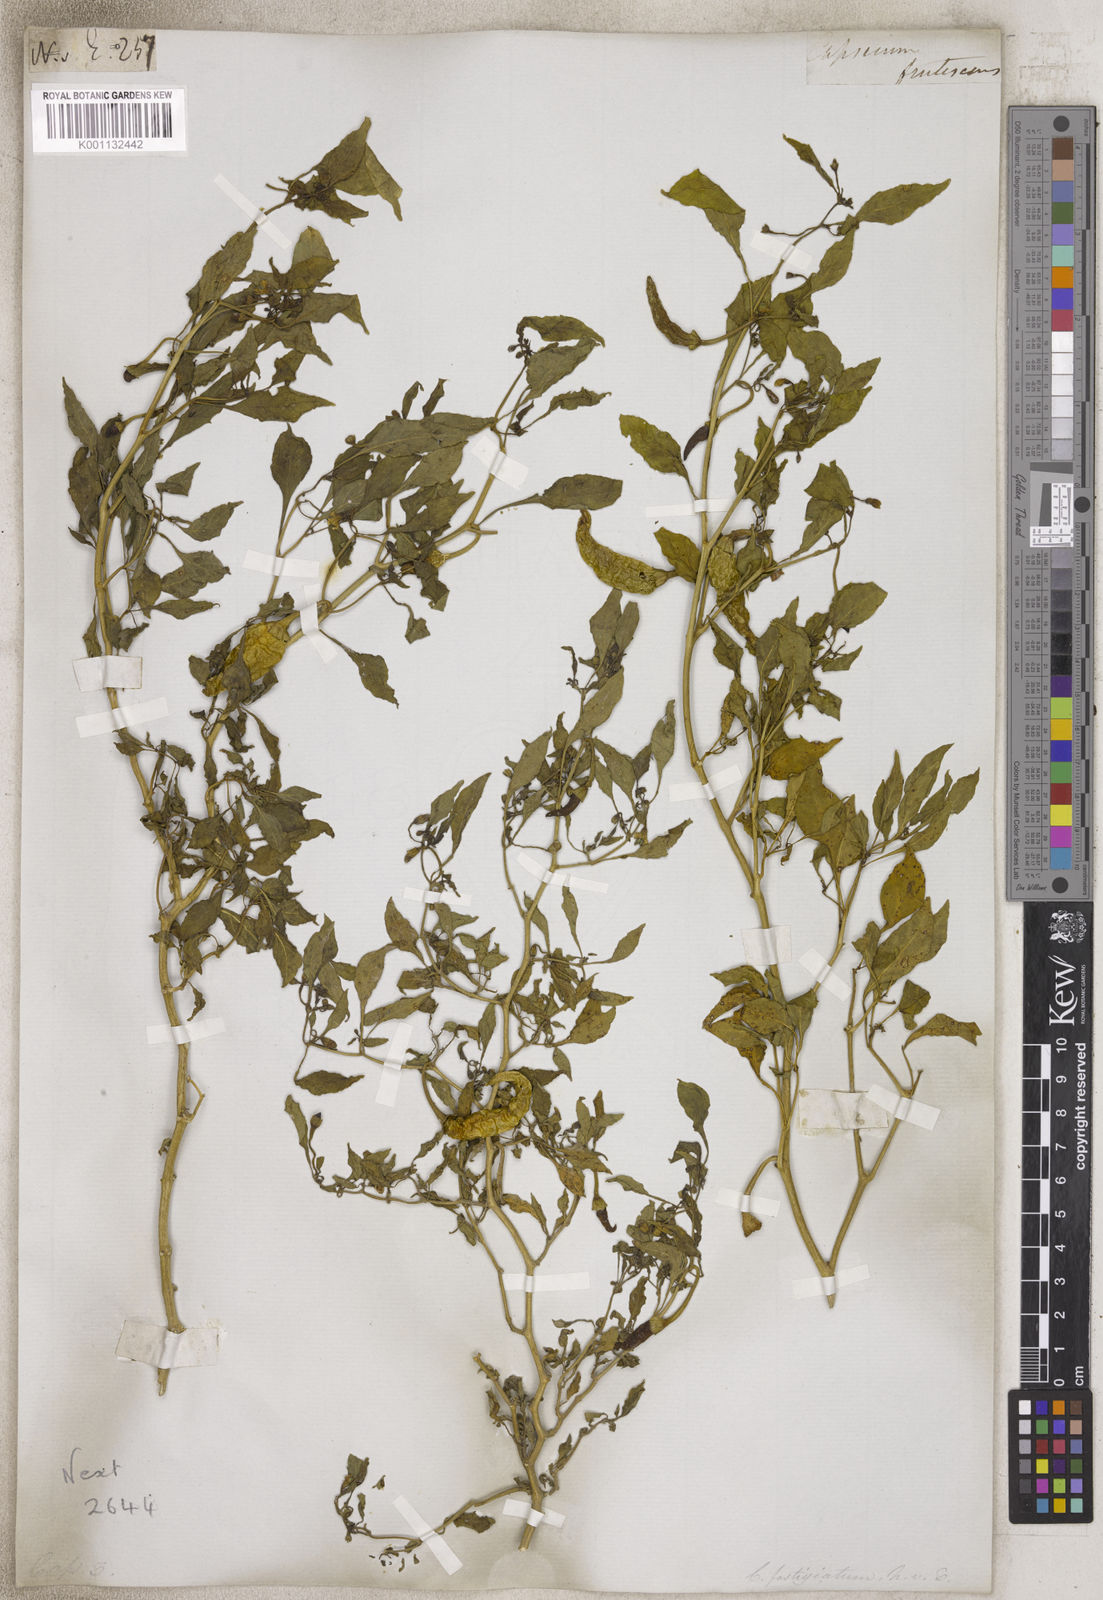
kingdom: Plantae
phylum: Tracheophyta
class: Magnoliopsida
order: Solanales
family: Solanaceae
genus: Capsicum
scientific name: Capsicum
